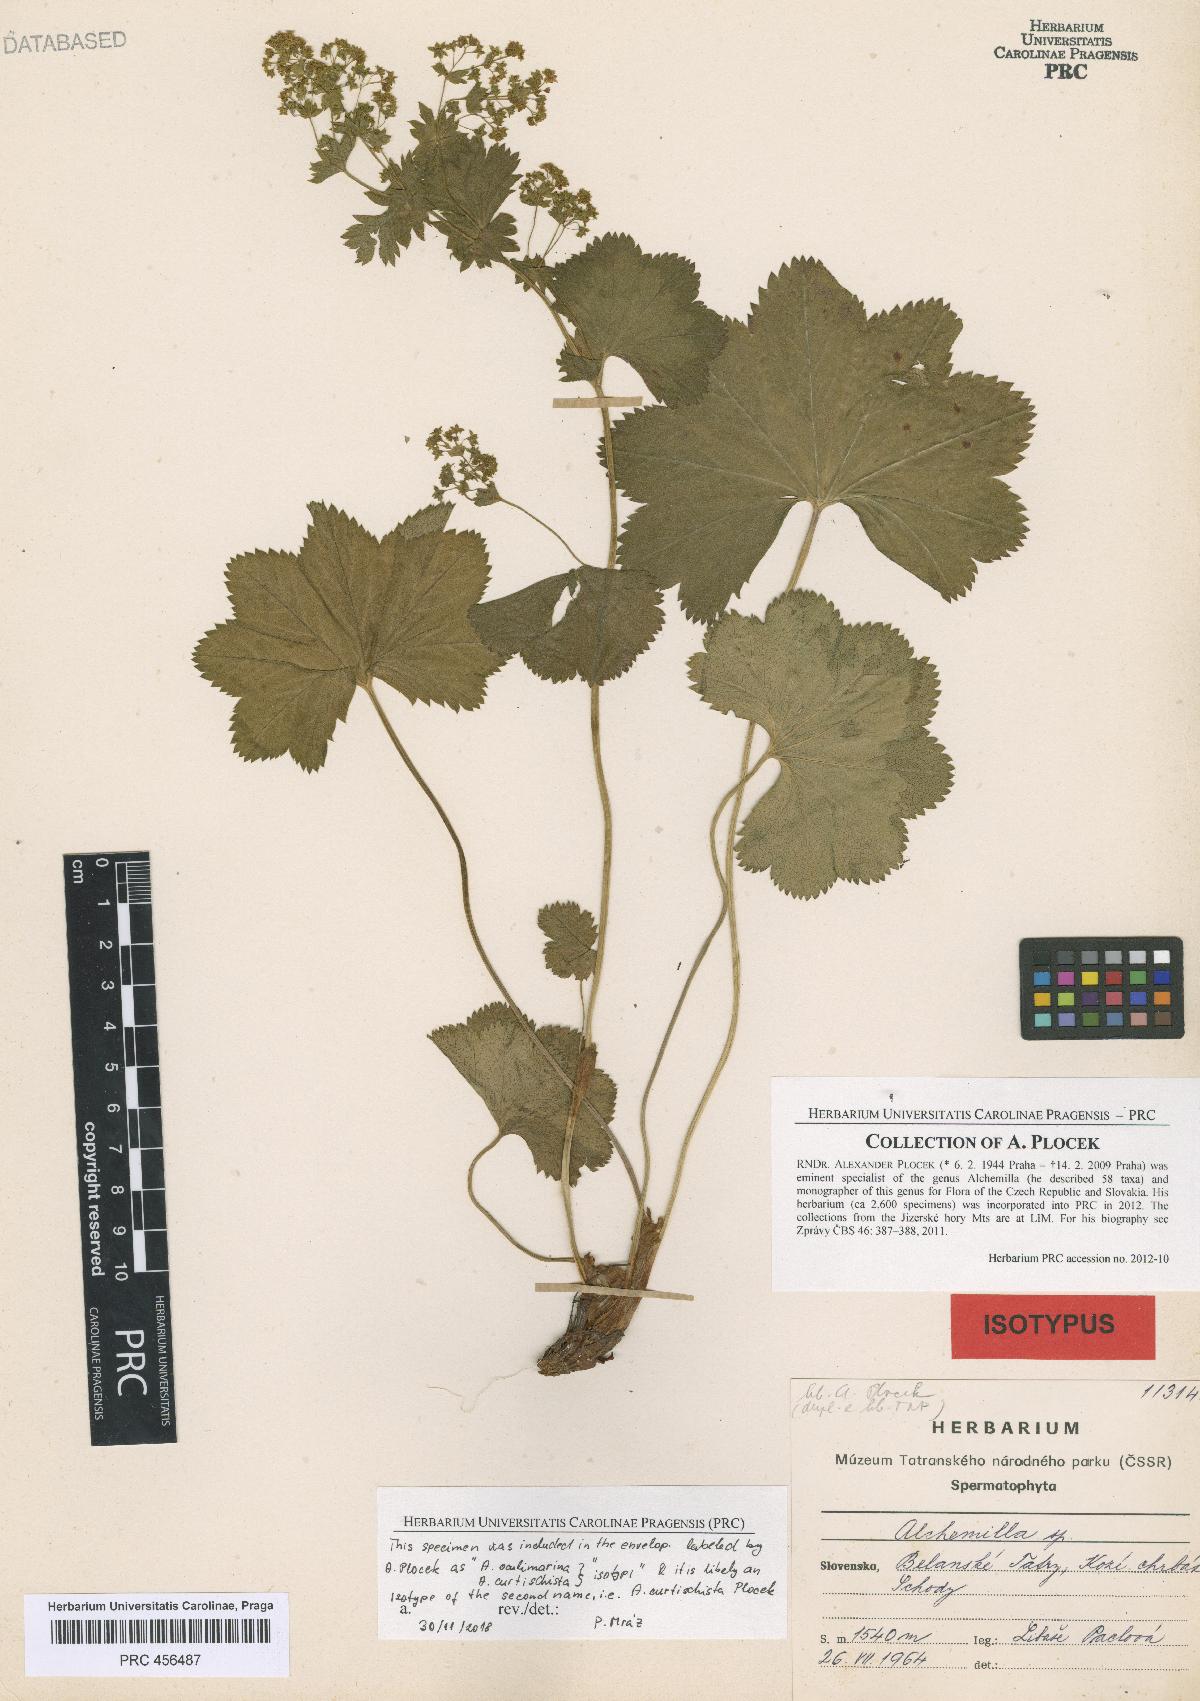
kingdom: Plantae
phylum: Tracheophyta
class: Magnoliopsida
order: Rosales
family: Rosaceae
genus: Alchemilla
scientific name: Alchemilla curtischista
